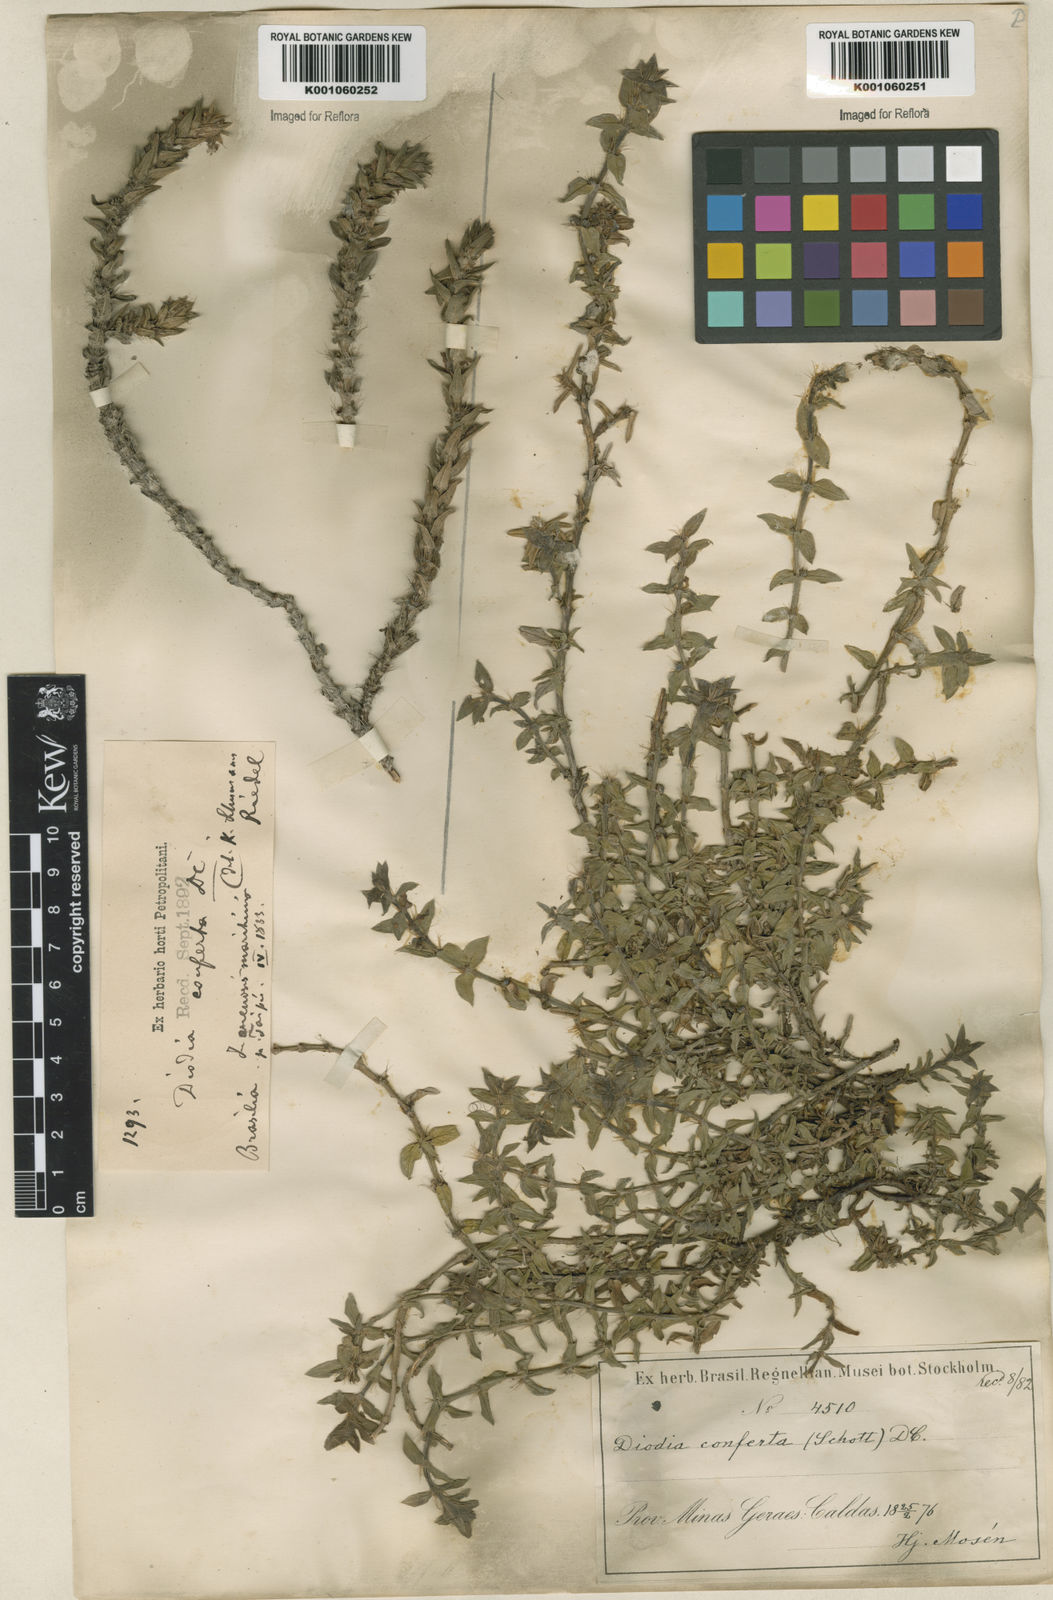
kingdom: Plantae
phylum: Tracheophyta
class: Magnoliopsida
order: Gentianales
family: Rubiaceae
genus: Hexasepalum
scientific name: Hexasepalum apiculatum
